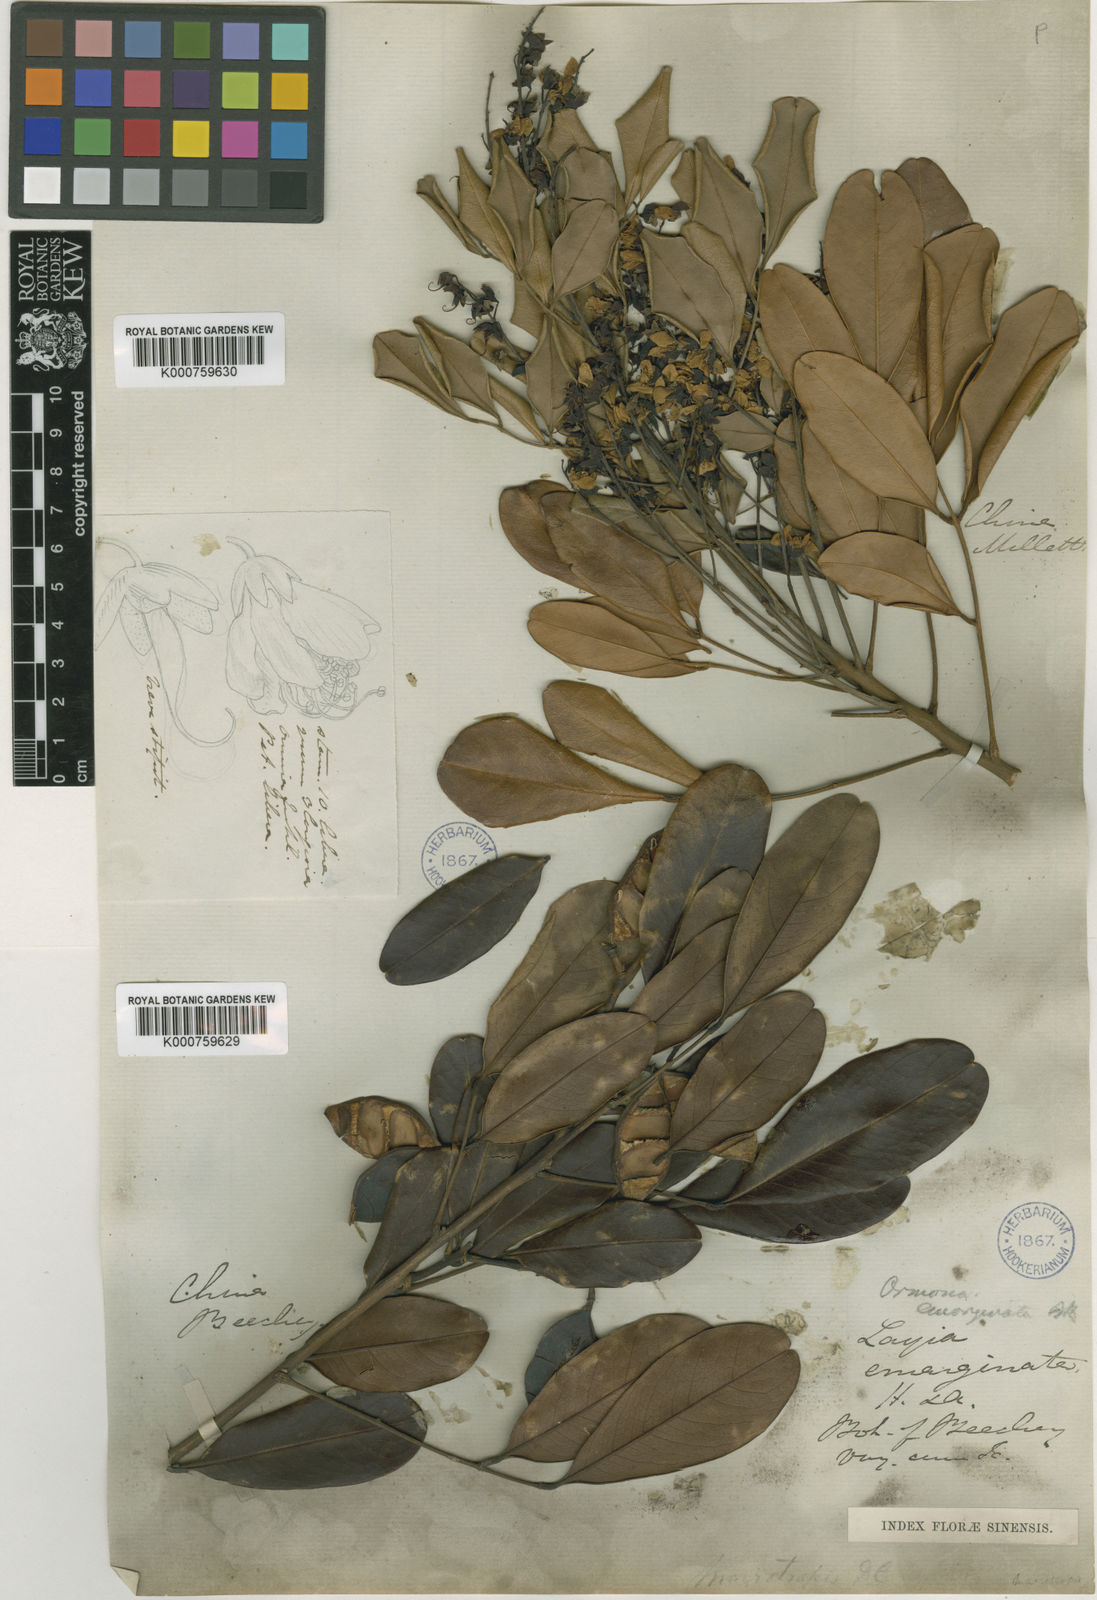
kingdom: Plantae
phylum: Tracheophyta
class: Magnoliopsida
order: Fabales
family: Fabaceae
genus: Ormosia
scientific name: Ormosia emarginata
